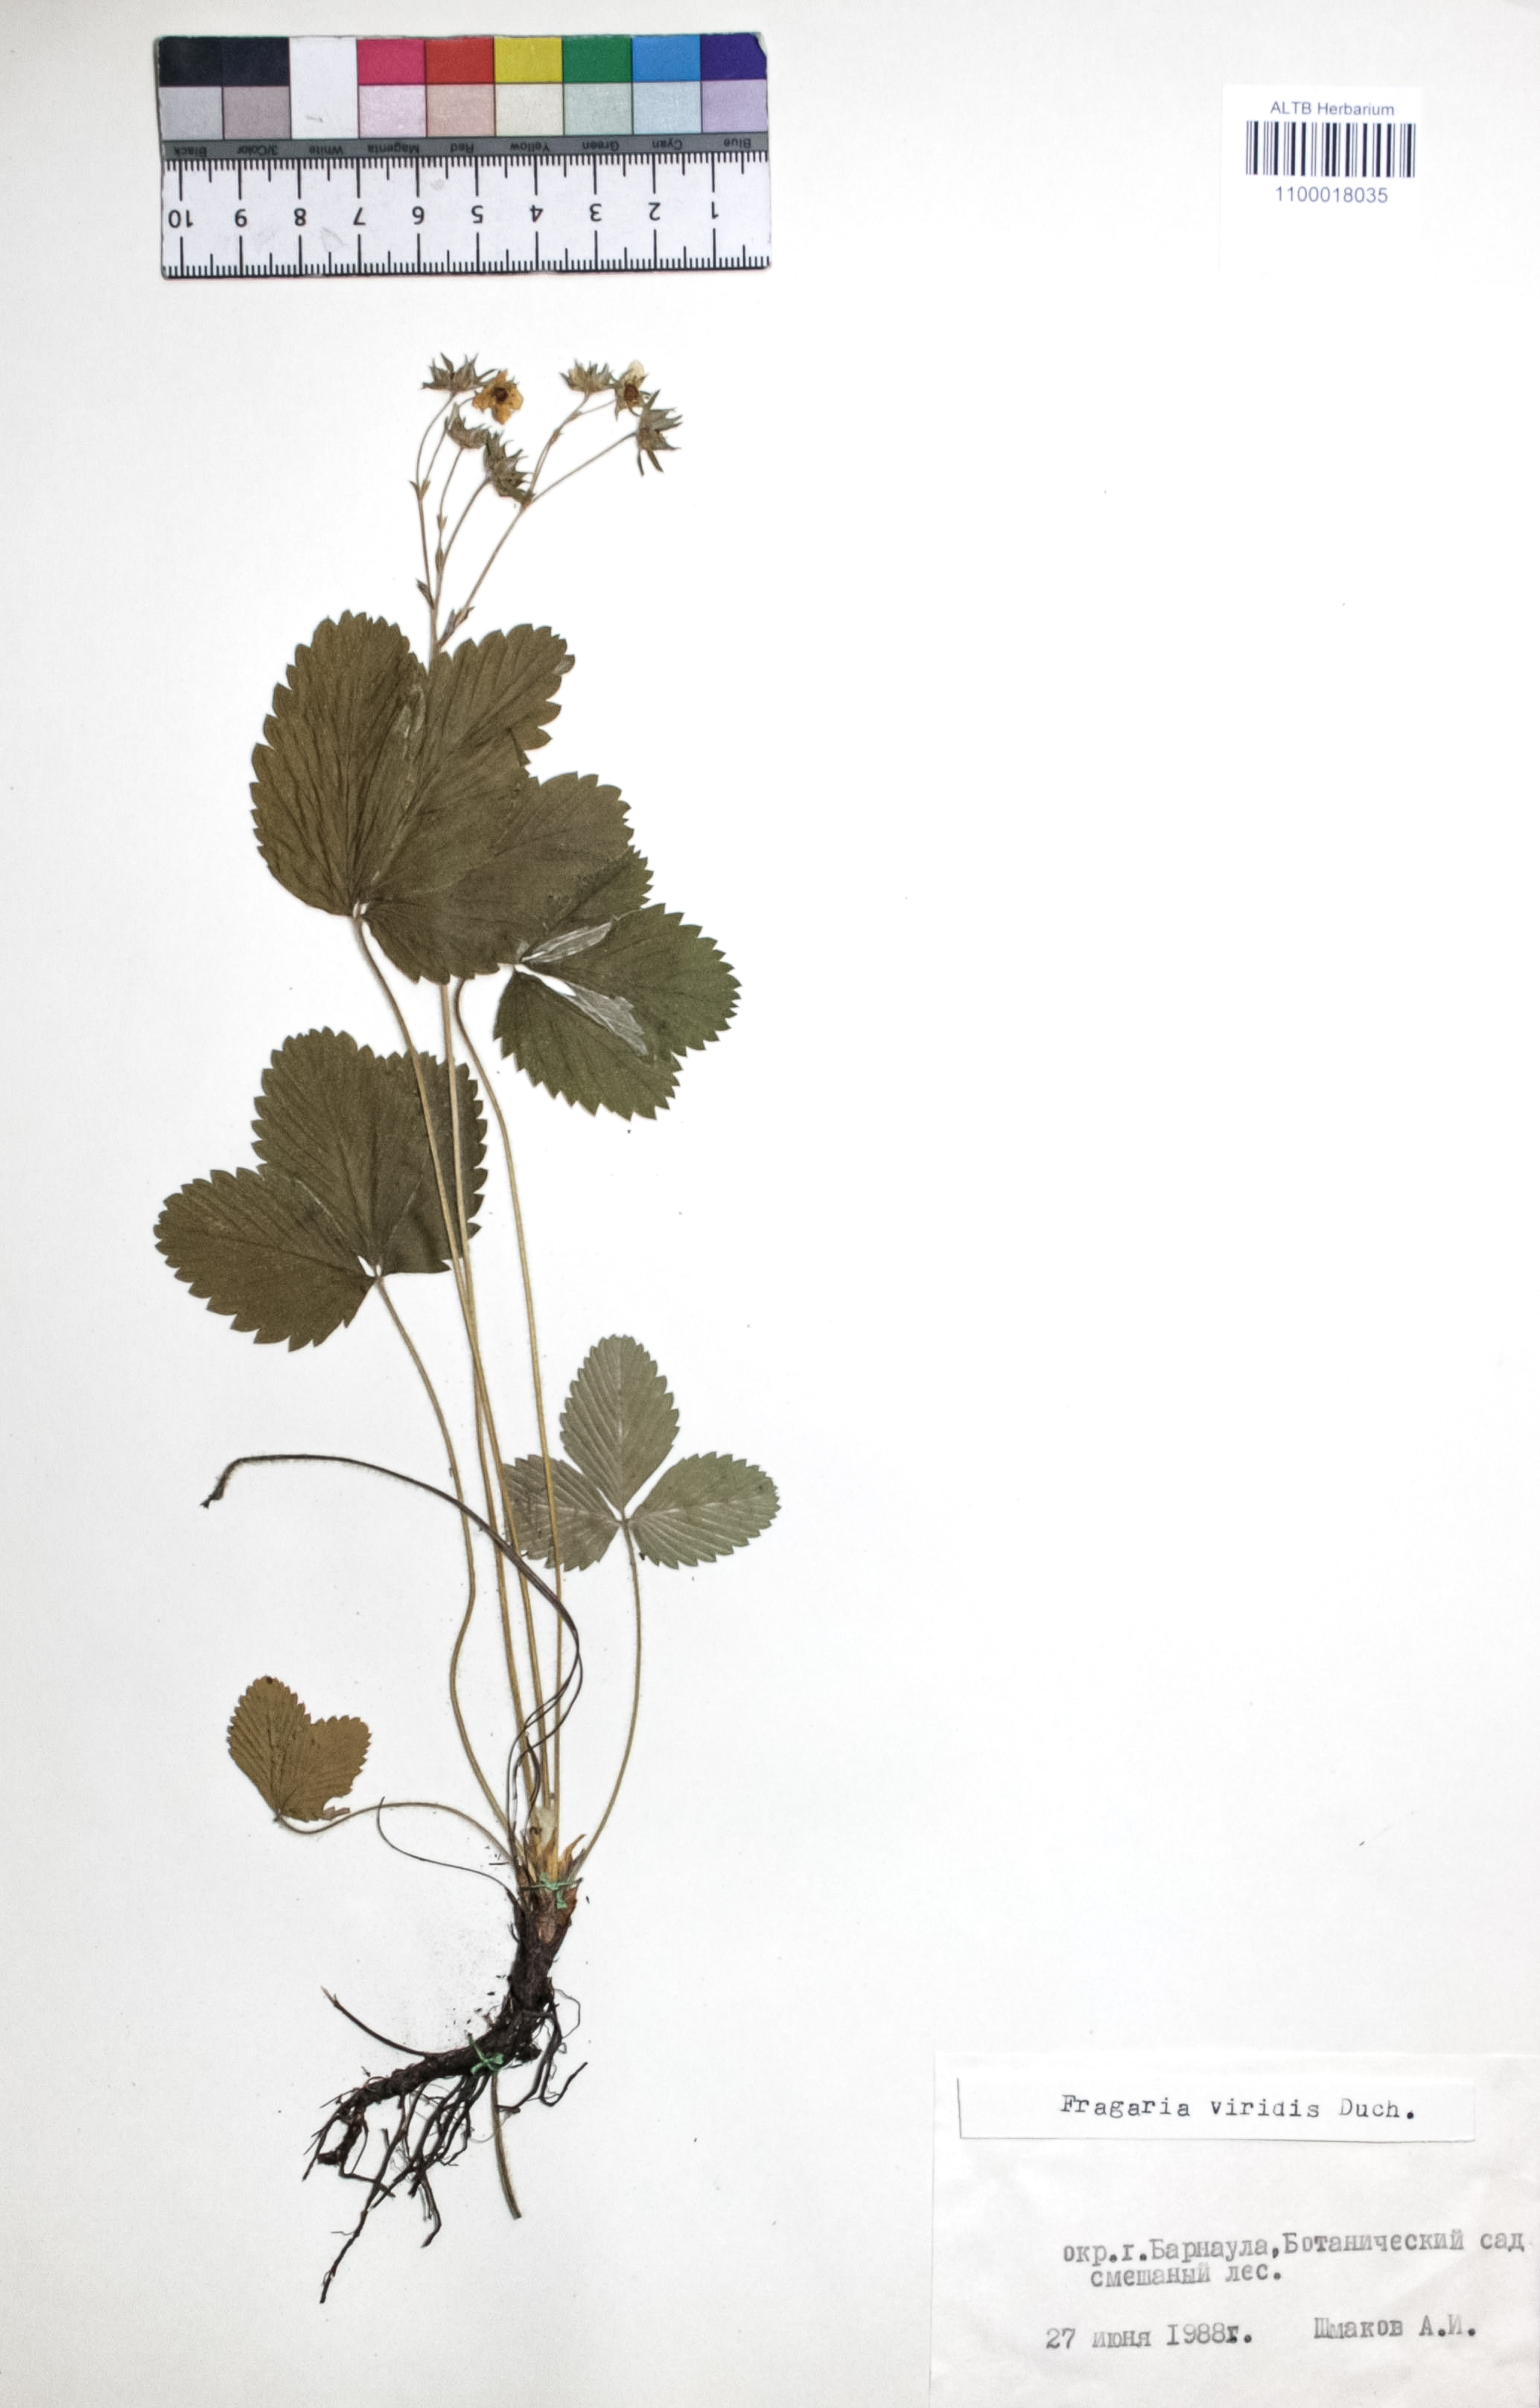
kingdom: Plantae
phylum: Tracheophyta
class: Magnoliopsida
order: Rosales
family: Rosaceae
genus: Fragaria
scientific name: Fragaria viridis
